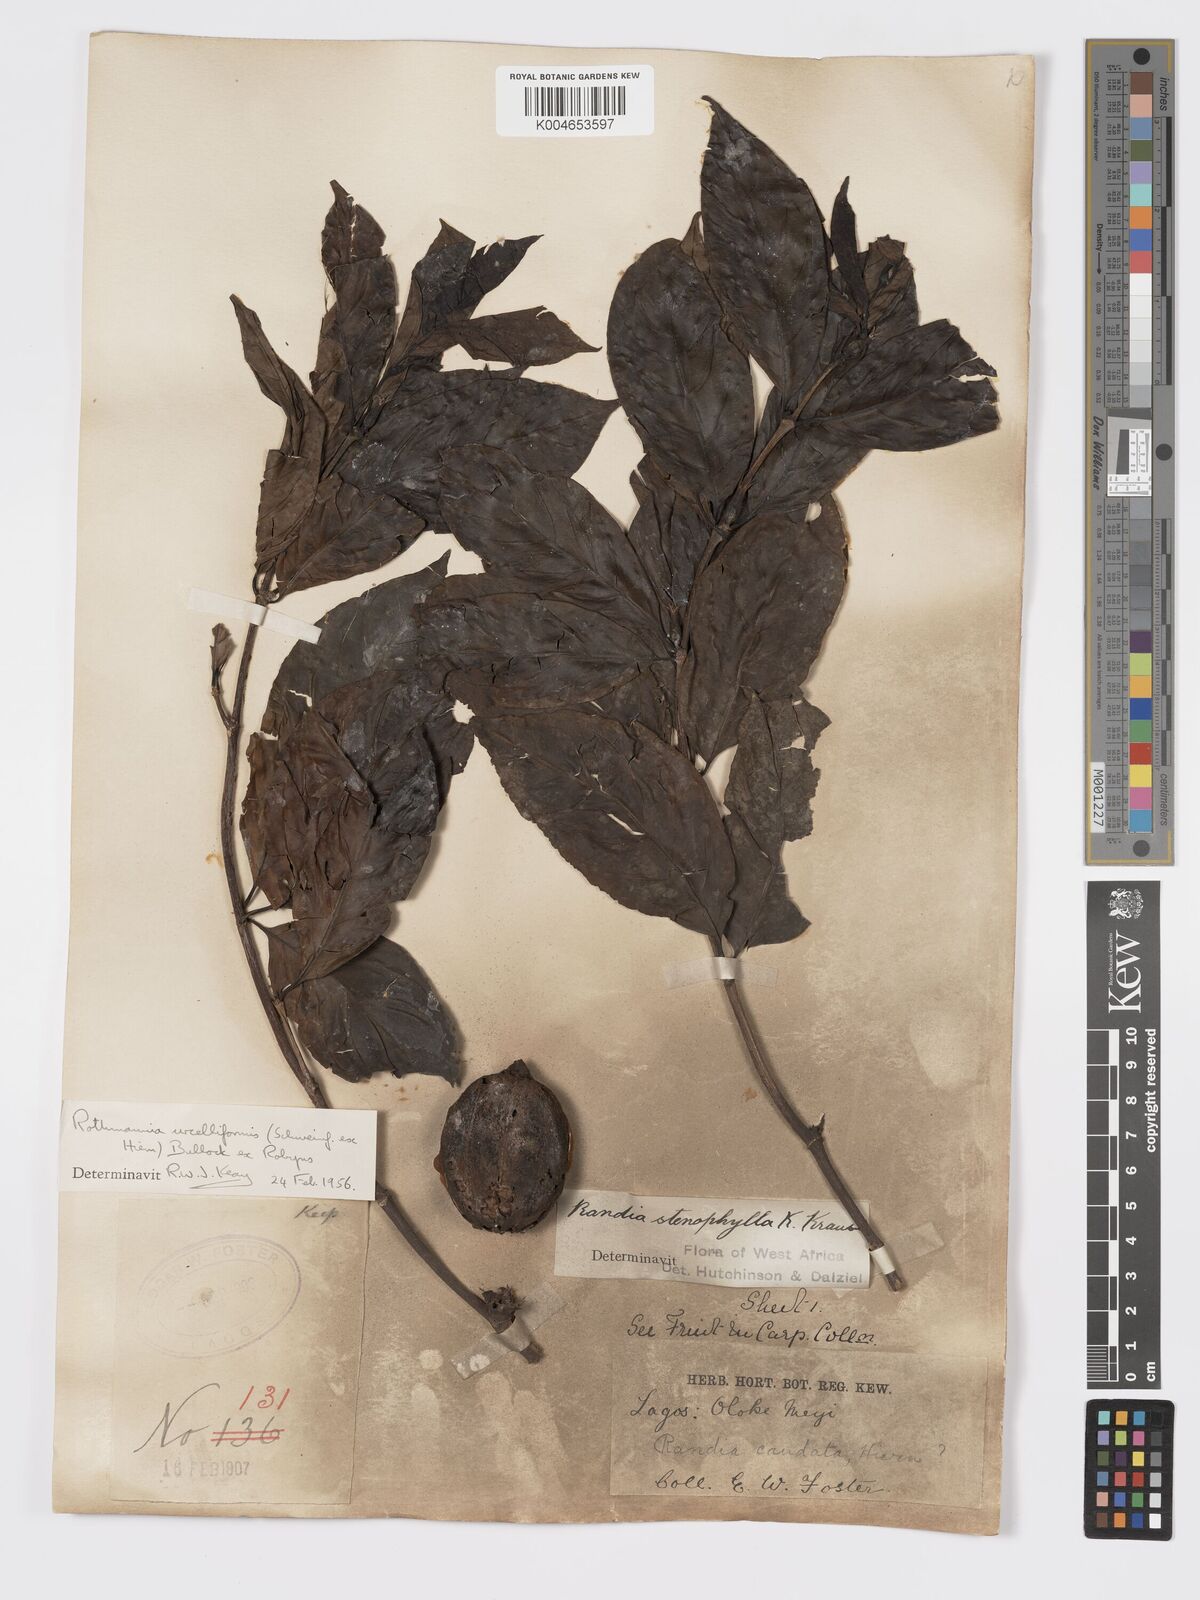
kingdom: Plantae
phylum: Tracheophyta
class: Magnoliopsida
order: Gentianales
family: Rubiaceae
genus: Rothmannia
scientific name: Rothmannia urcelliformis
